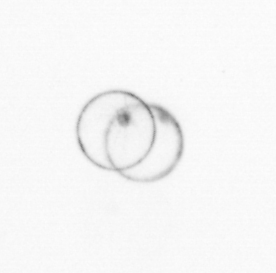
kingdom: Chromista
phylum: Myzozoa
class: Dinophyceae
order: Noctilucales
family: Noctilucaceae
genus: Noctiluca
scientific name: Noctiluca scintillans
